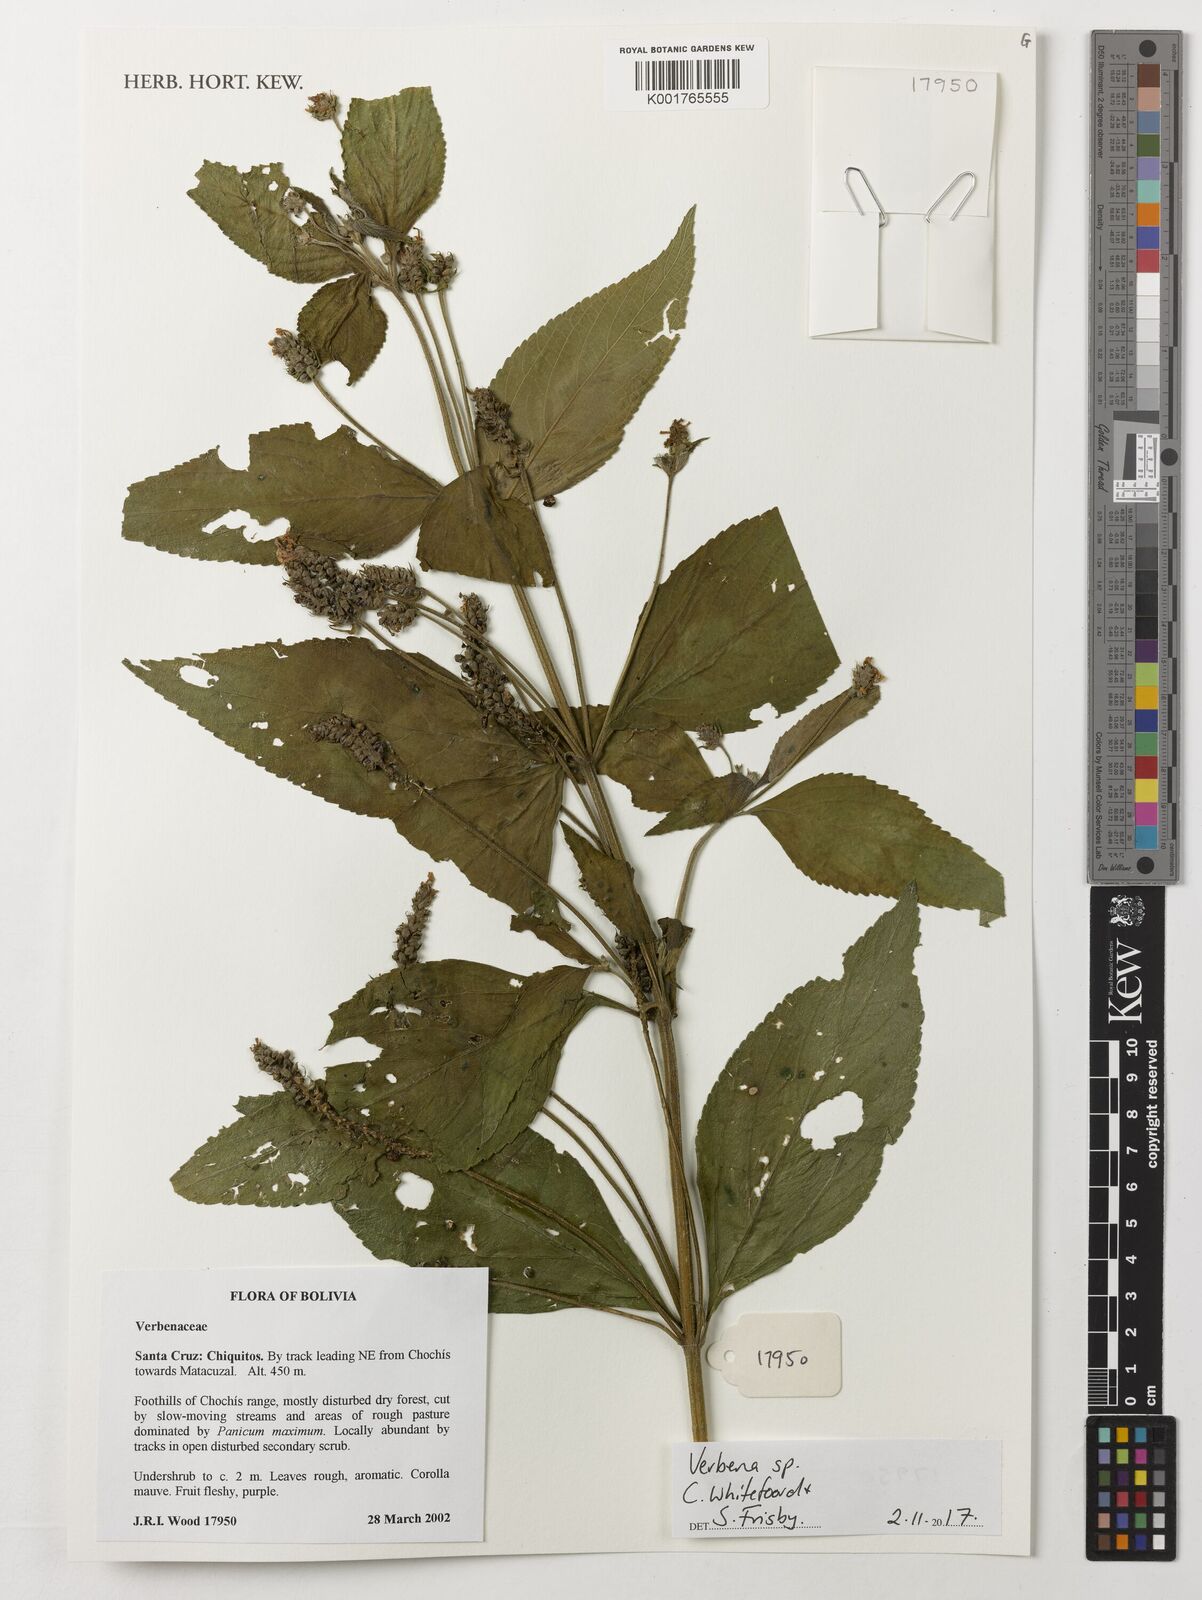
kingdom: Plantae
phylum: Tracheophyta
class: Magnoliopsida
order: Lamiales
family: Verbenaceae
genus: Verbena
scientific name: Verbena
